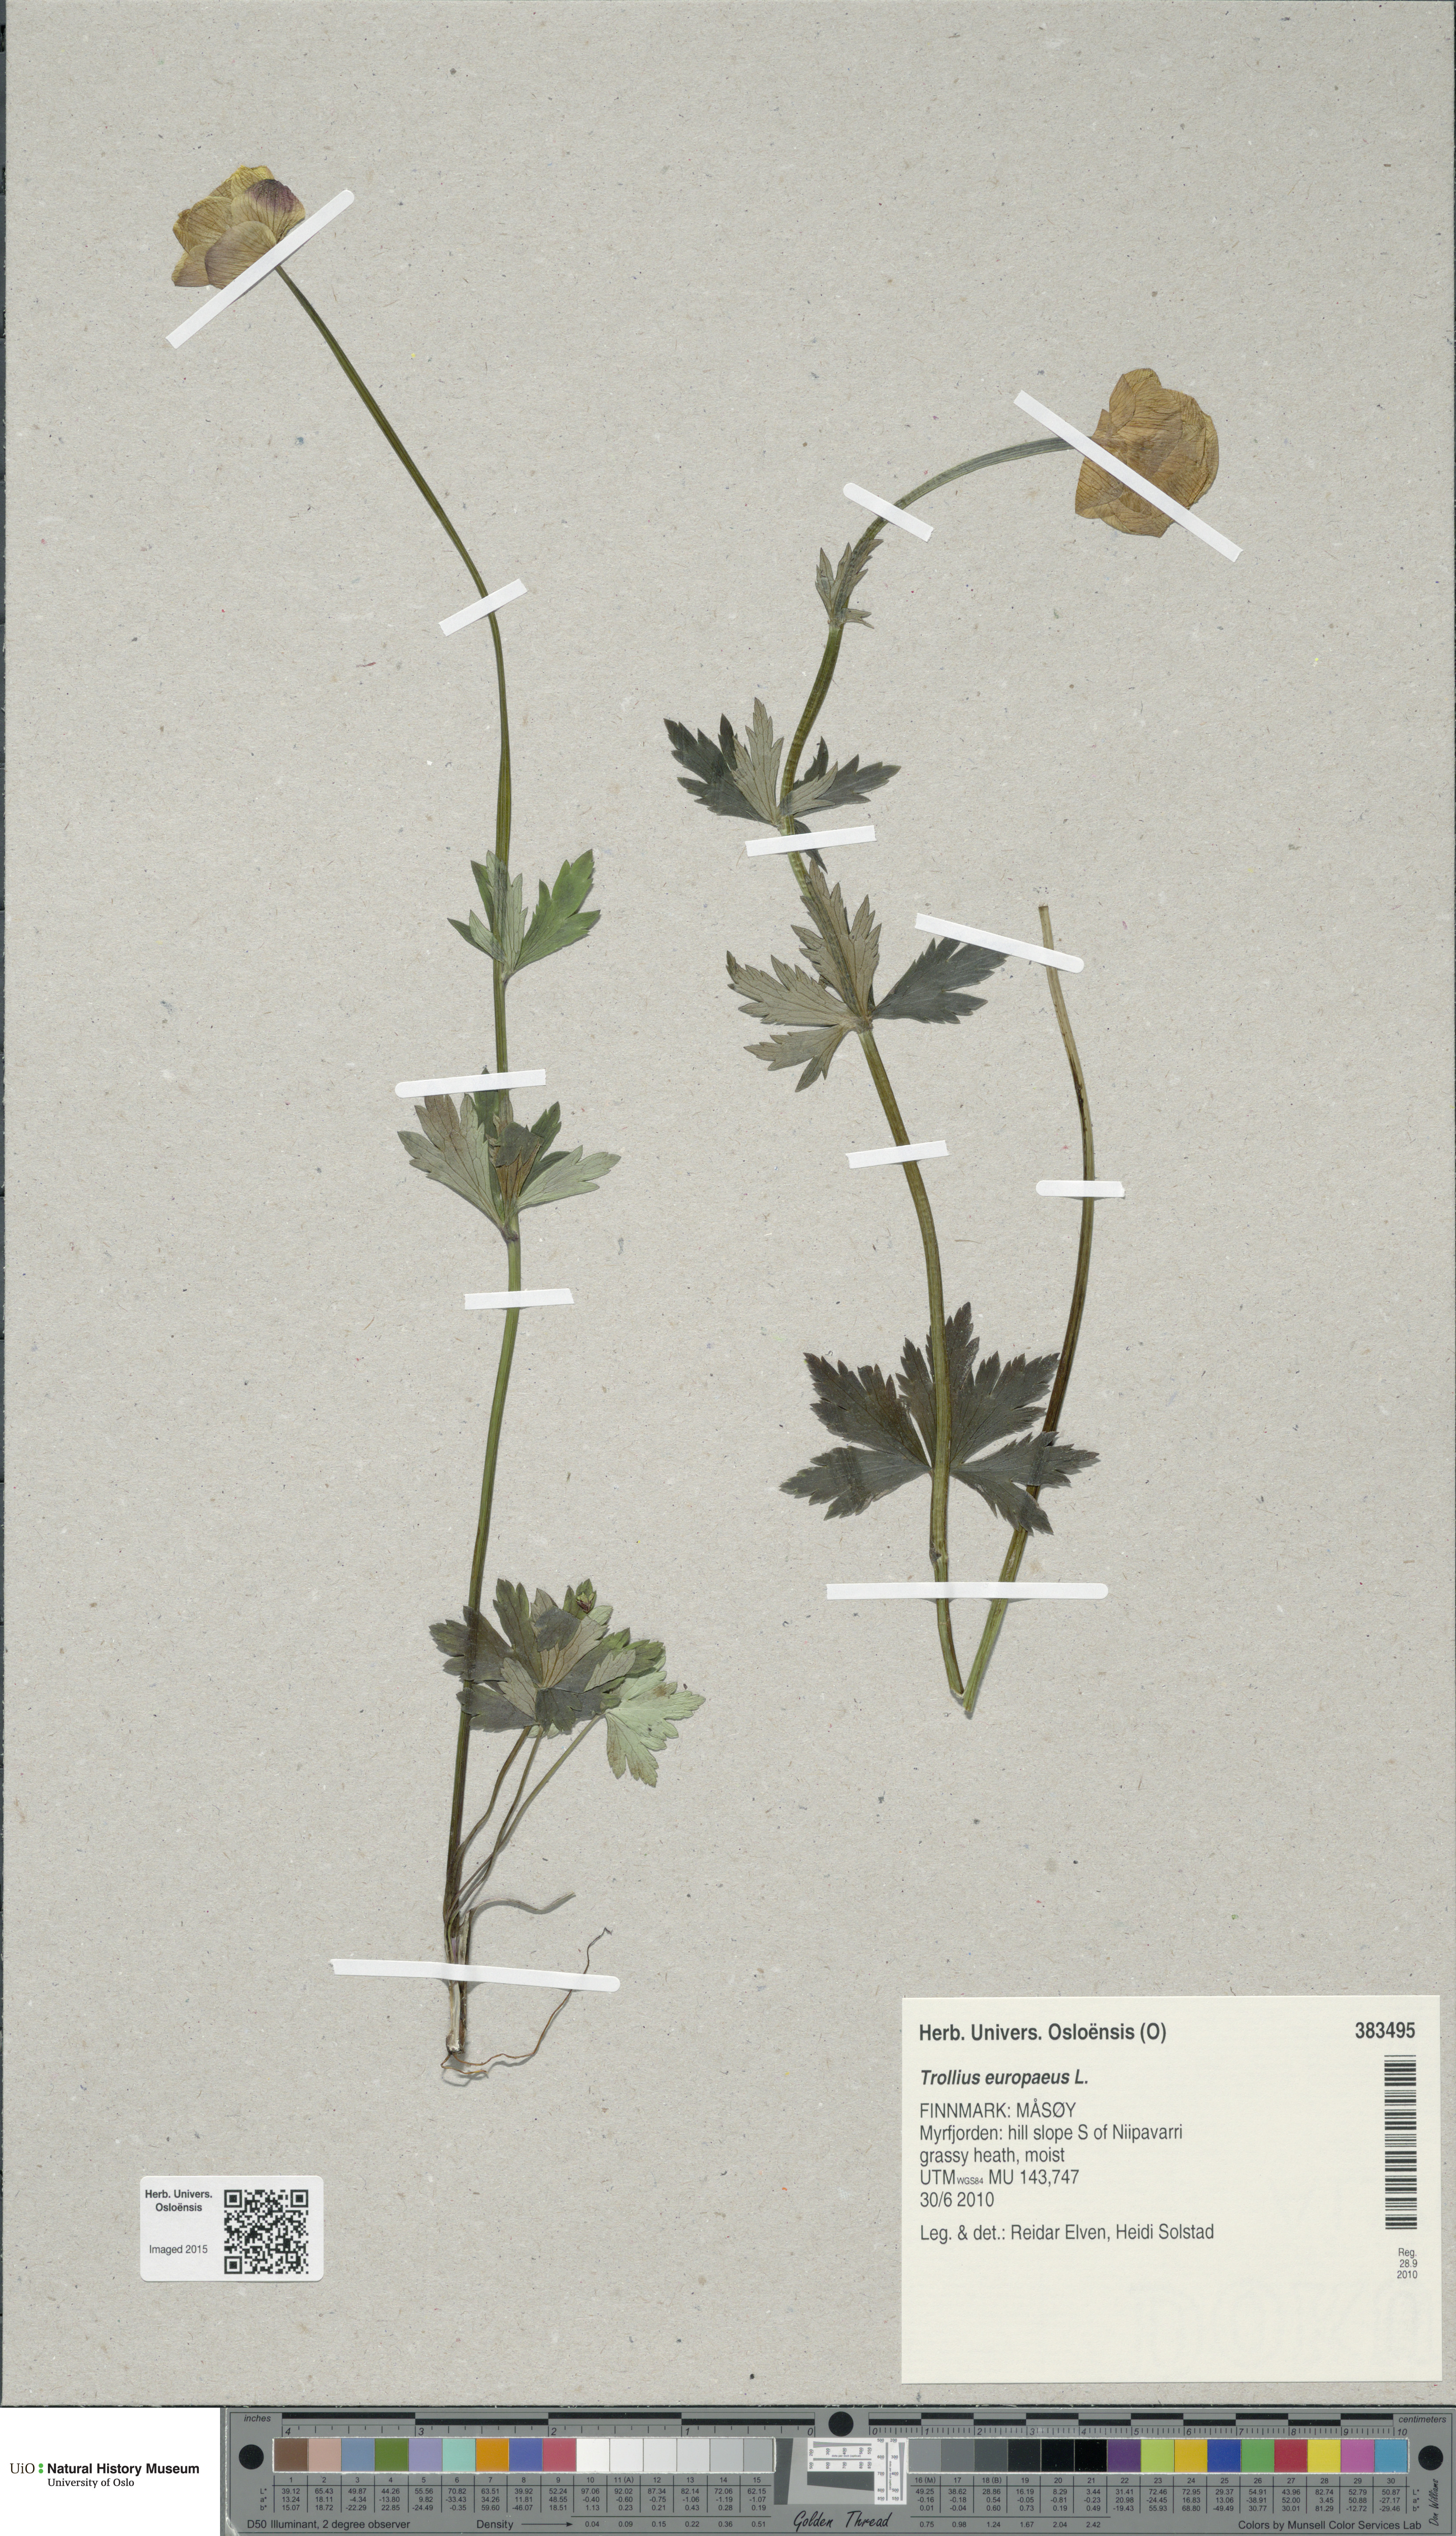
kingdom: Plantae
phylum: Tracheophyta
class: Magnoliopsida
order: Ranunculales
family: Ranunculaceae
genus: Trollius
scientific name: Trollius europaeus
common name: European globeflower
